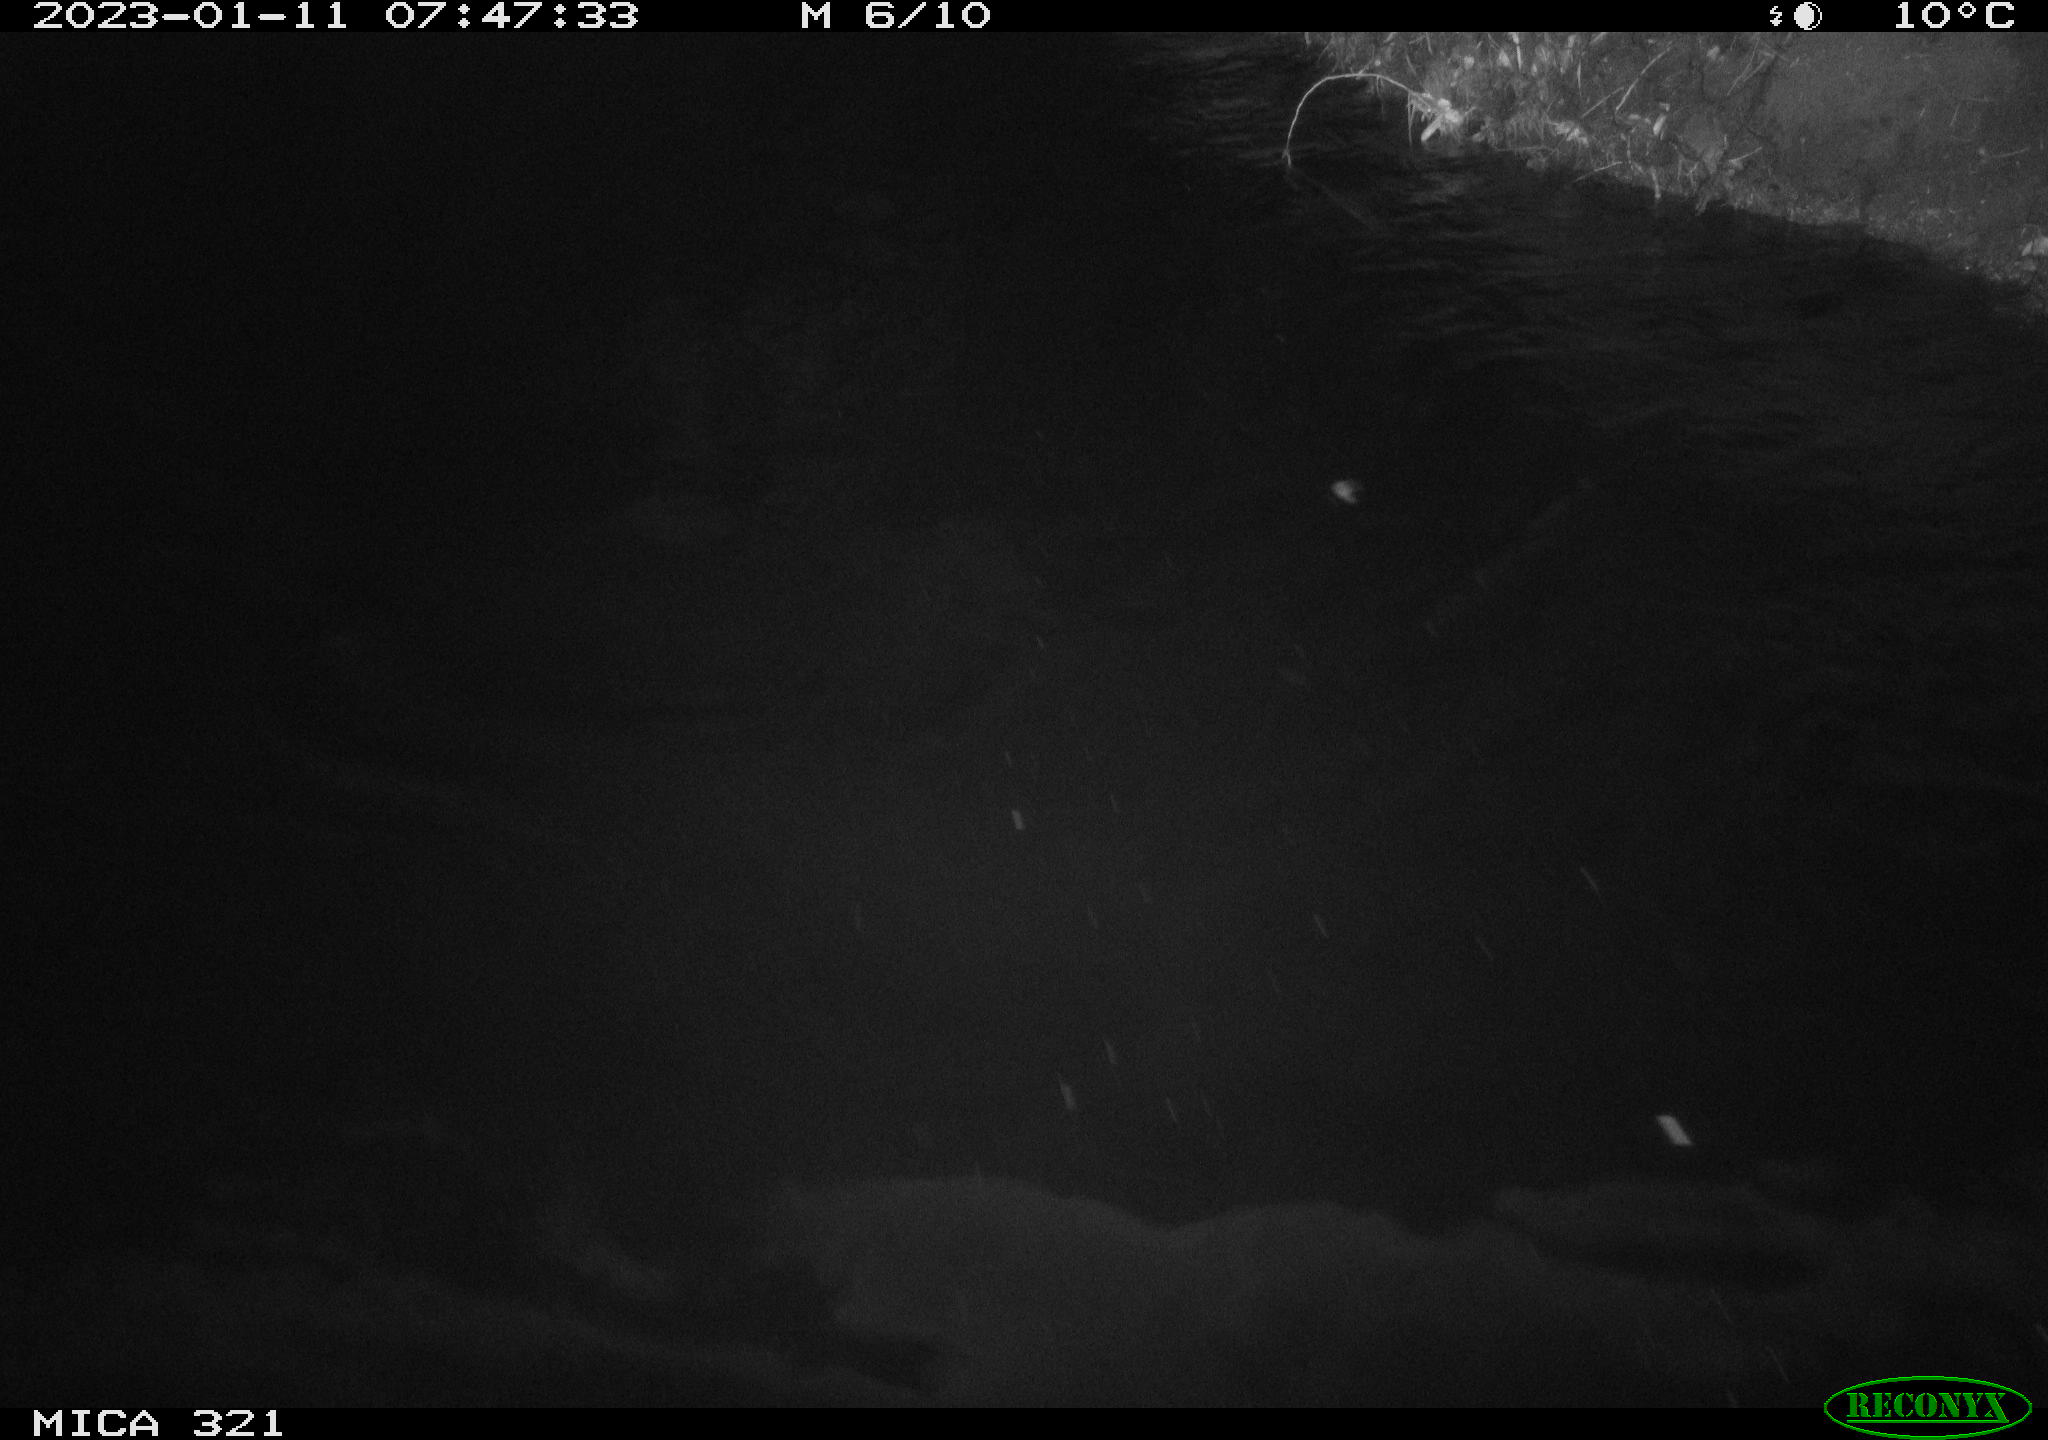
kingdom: Animalia
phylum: Chordata
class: Aves
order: Anseriformes
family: Anatidae
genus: Anas
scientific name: Anas
